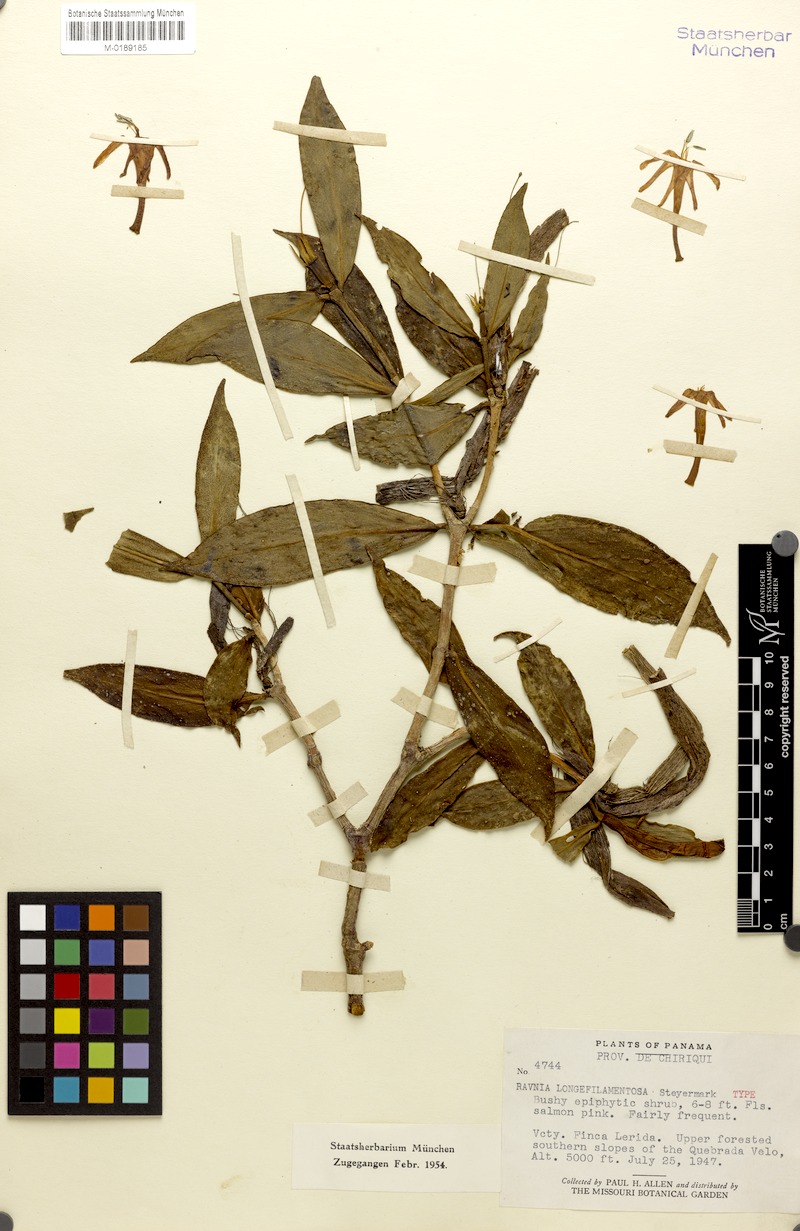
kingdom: Plantae
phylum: Tracheophyta
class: Magnoliopsida
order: Gentianales
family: Rubiaceae
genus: Hillia
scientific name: Hillia longifilamentosa
